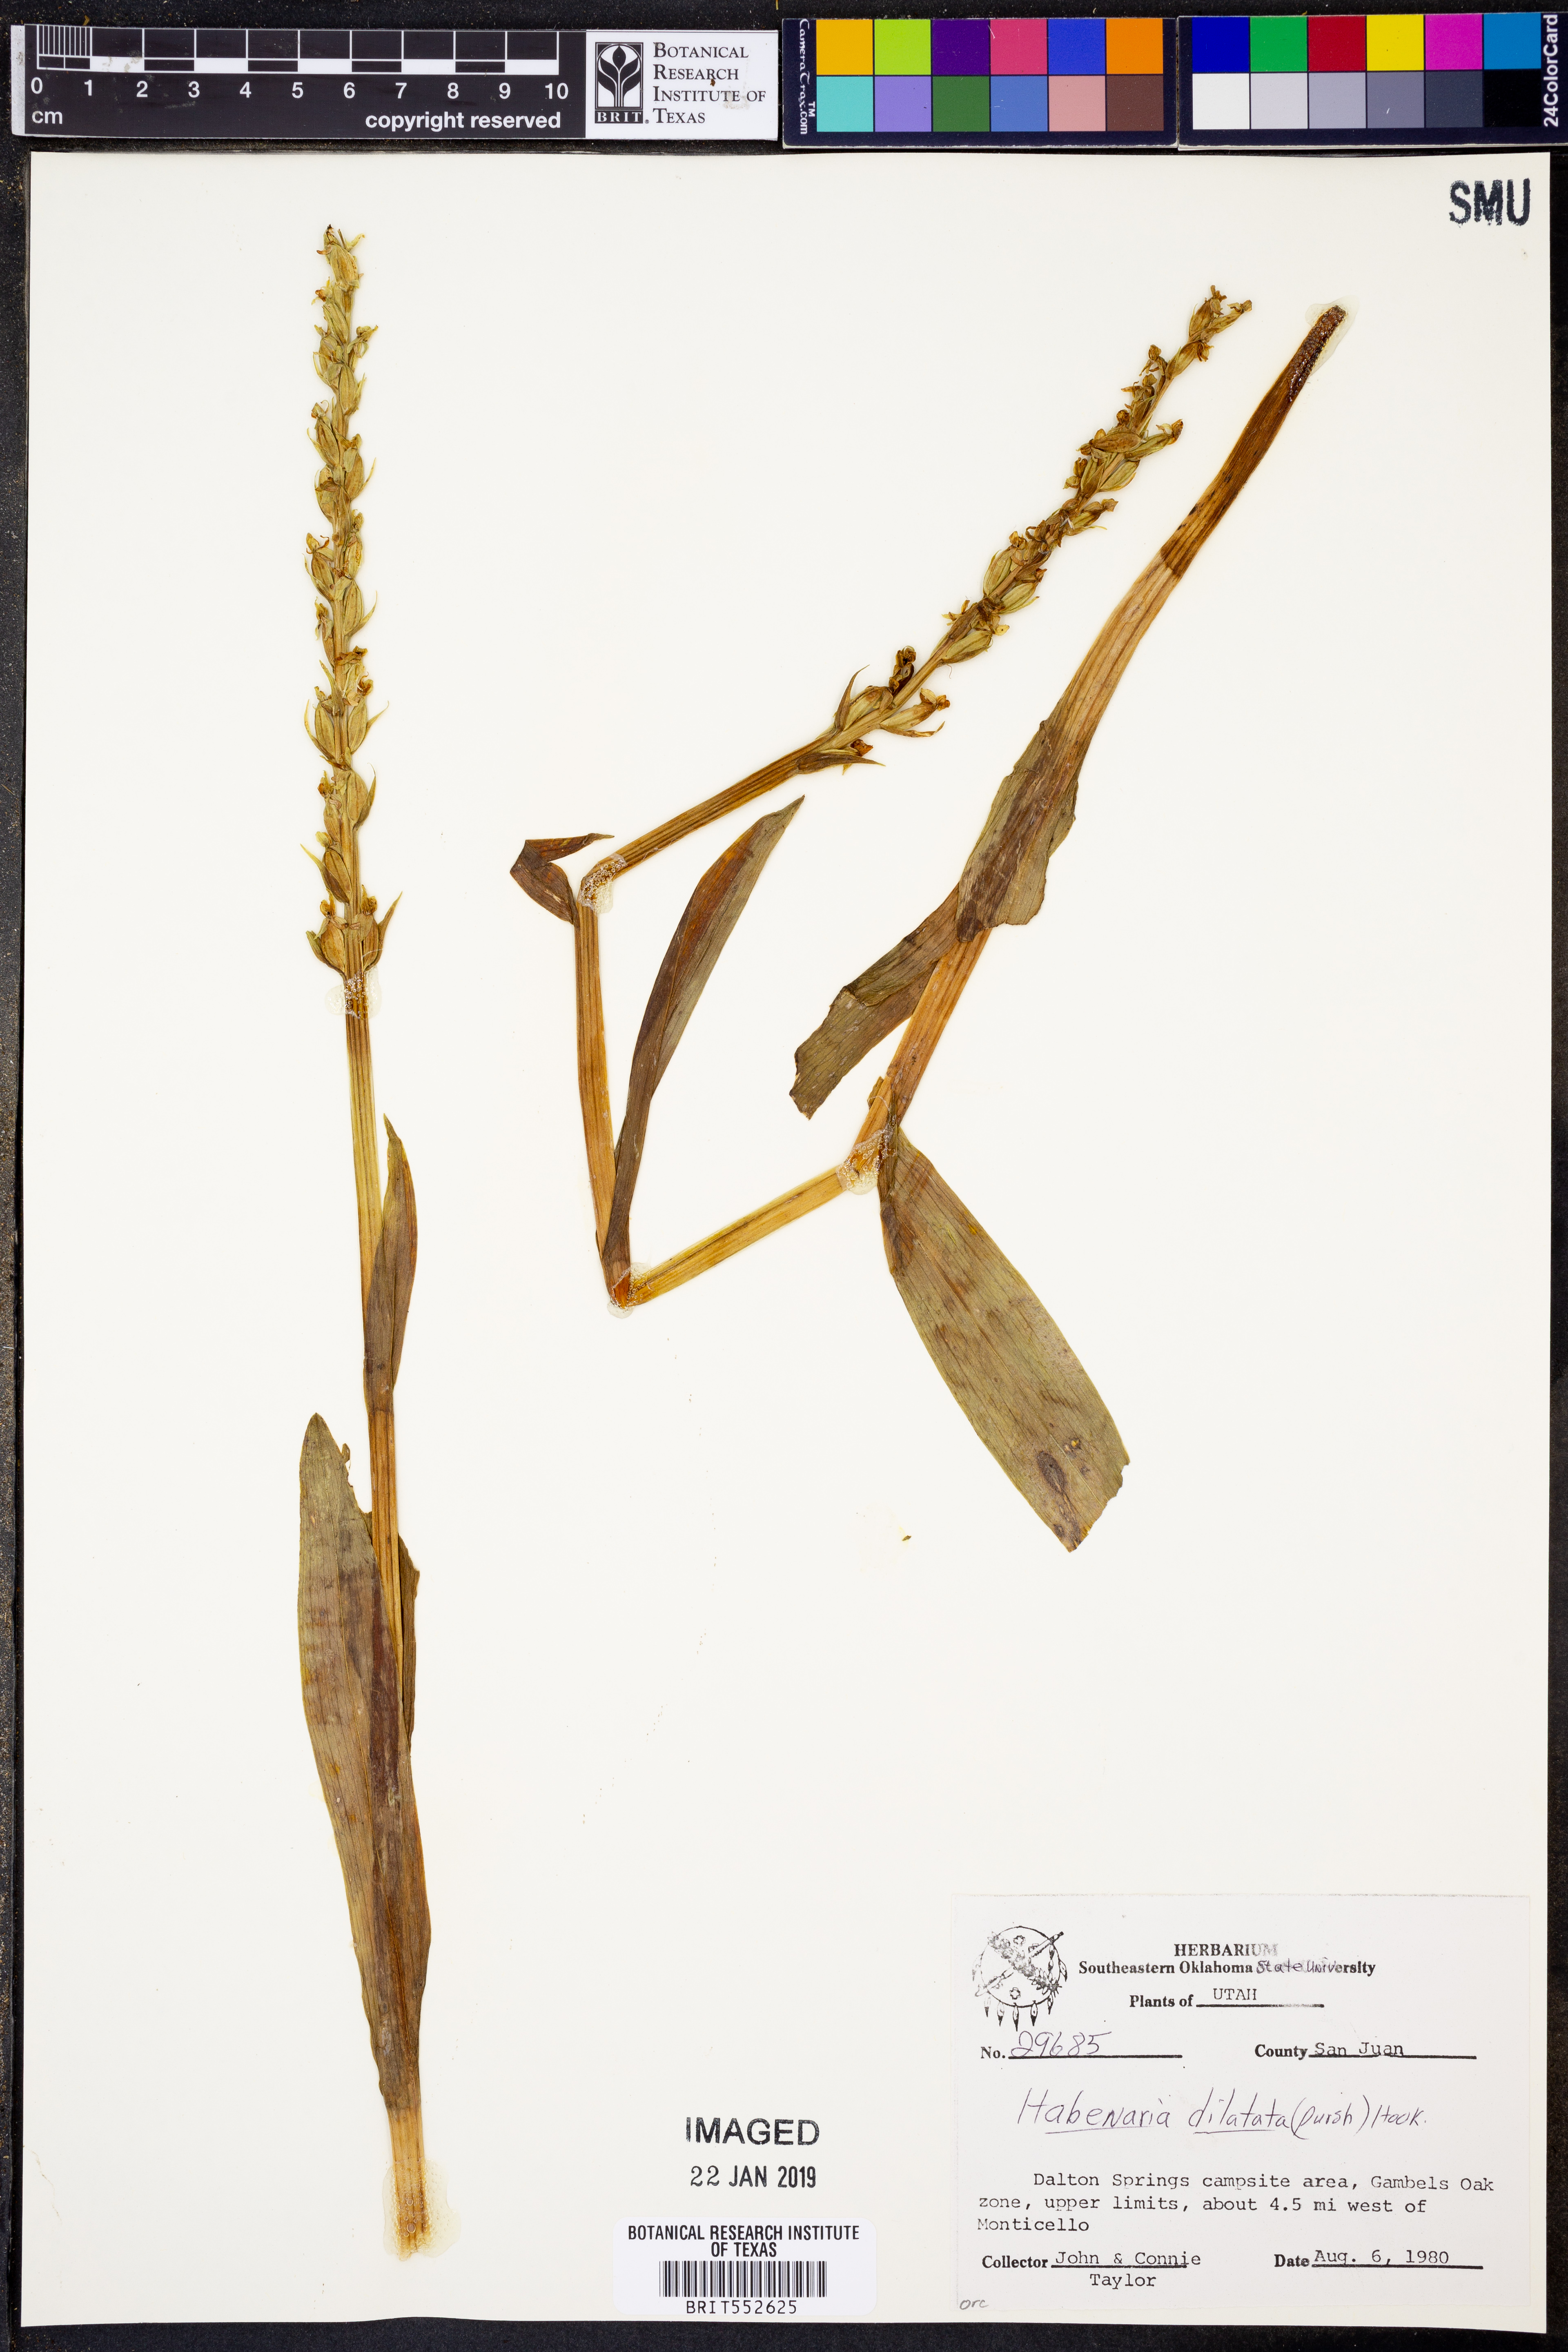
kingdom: Plantae
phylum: Tracheophyta
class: Liliopsida
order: Asparagales
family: Orchidaceae
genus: Platanthera
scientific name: Platanthera dilatata
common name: Bog candles
